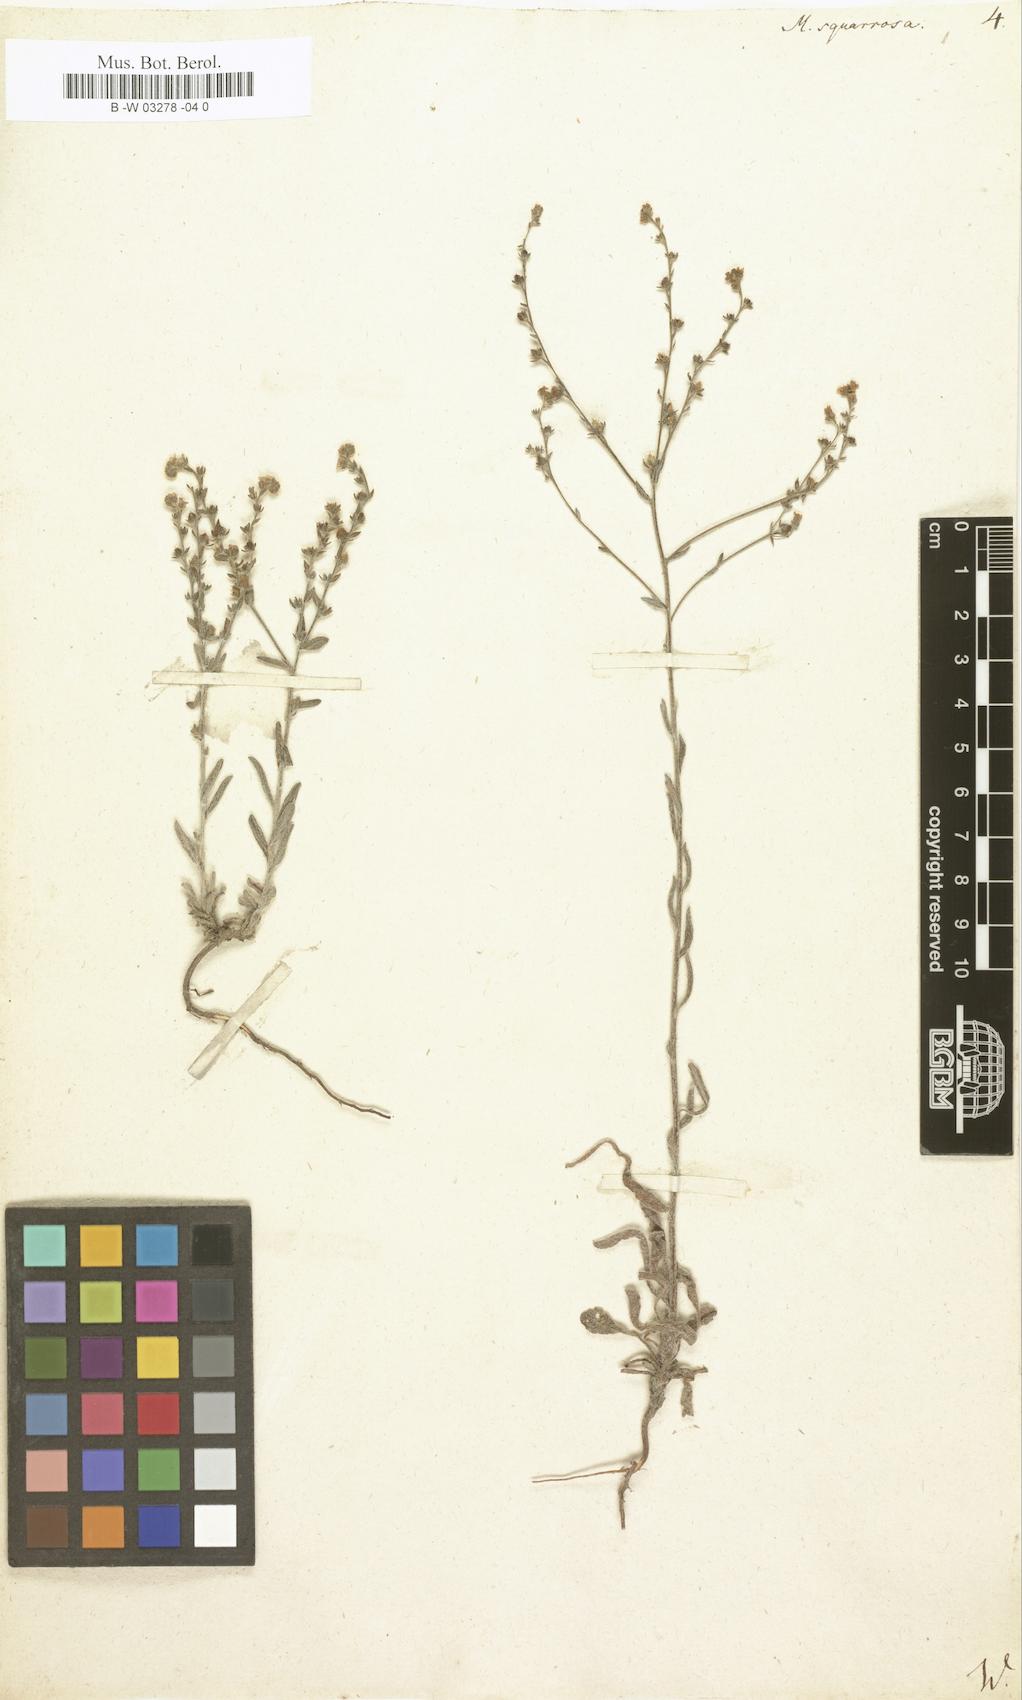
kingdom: Plantae
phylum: Tracheophyta
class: Magnoliopsida
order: Boraginales
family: Boraginaceae
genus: Lappula
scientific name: Lappula squarrosa
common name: European stickseed
